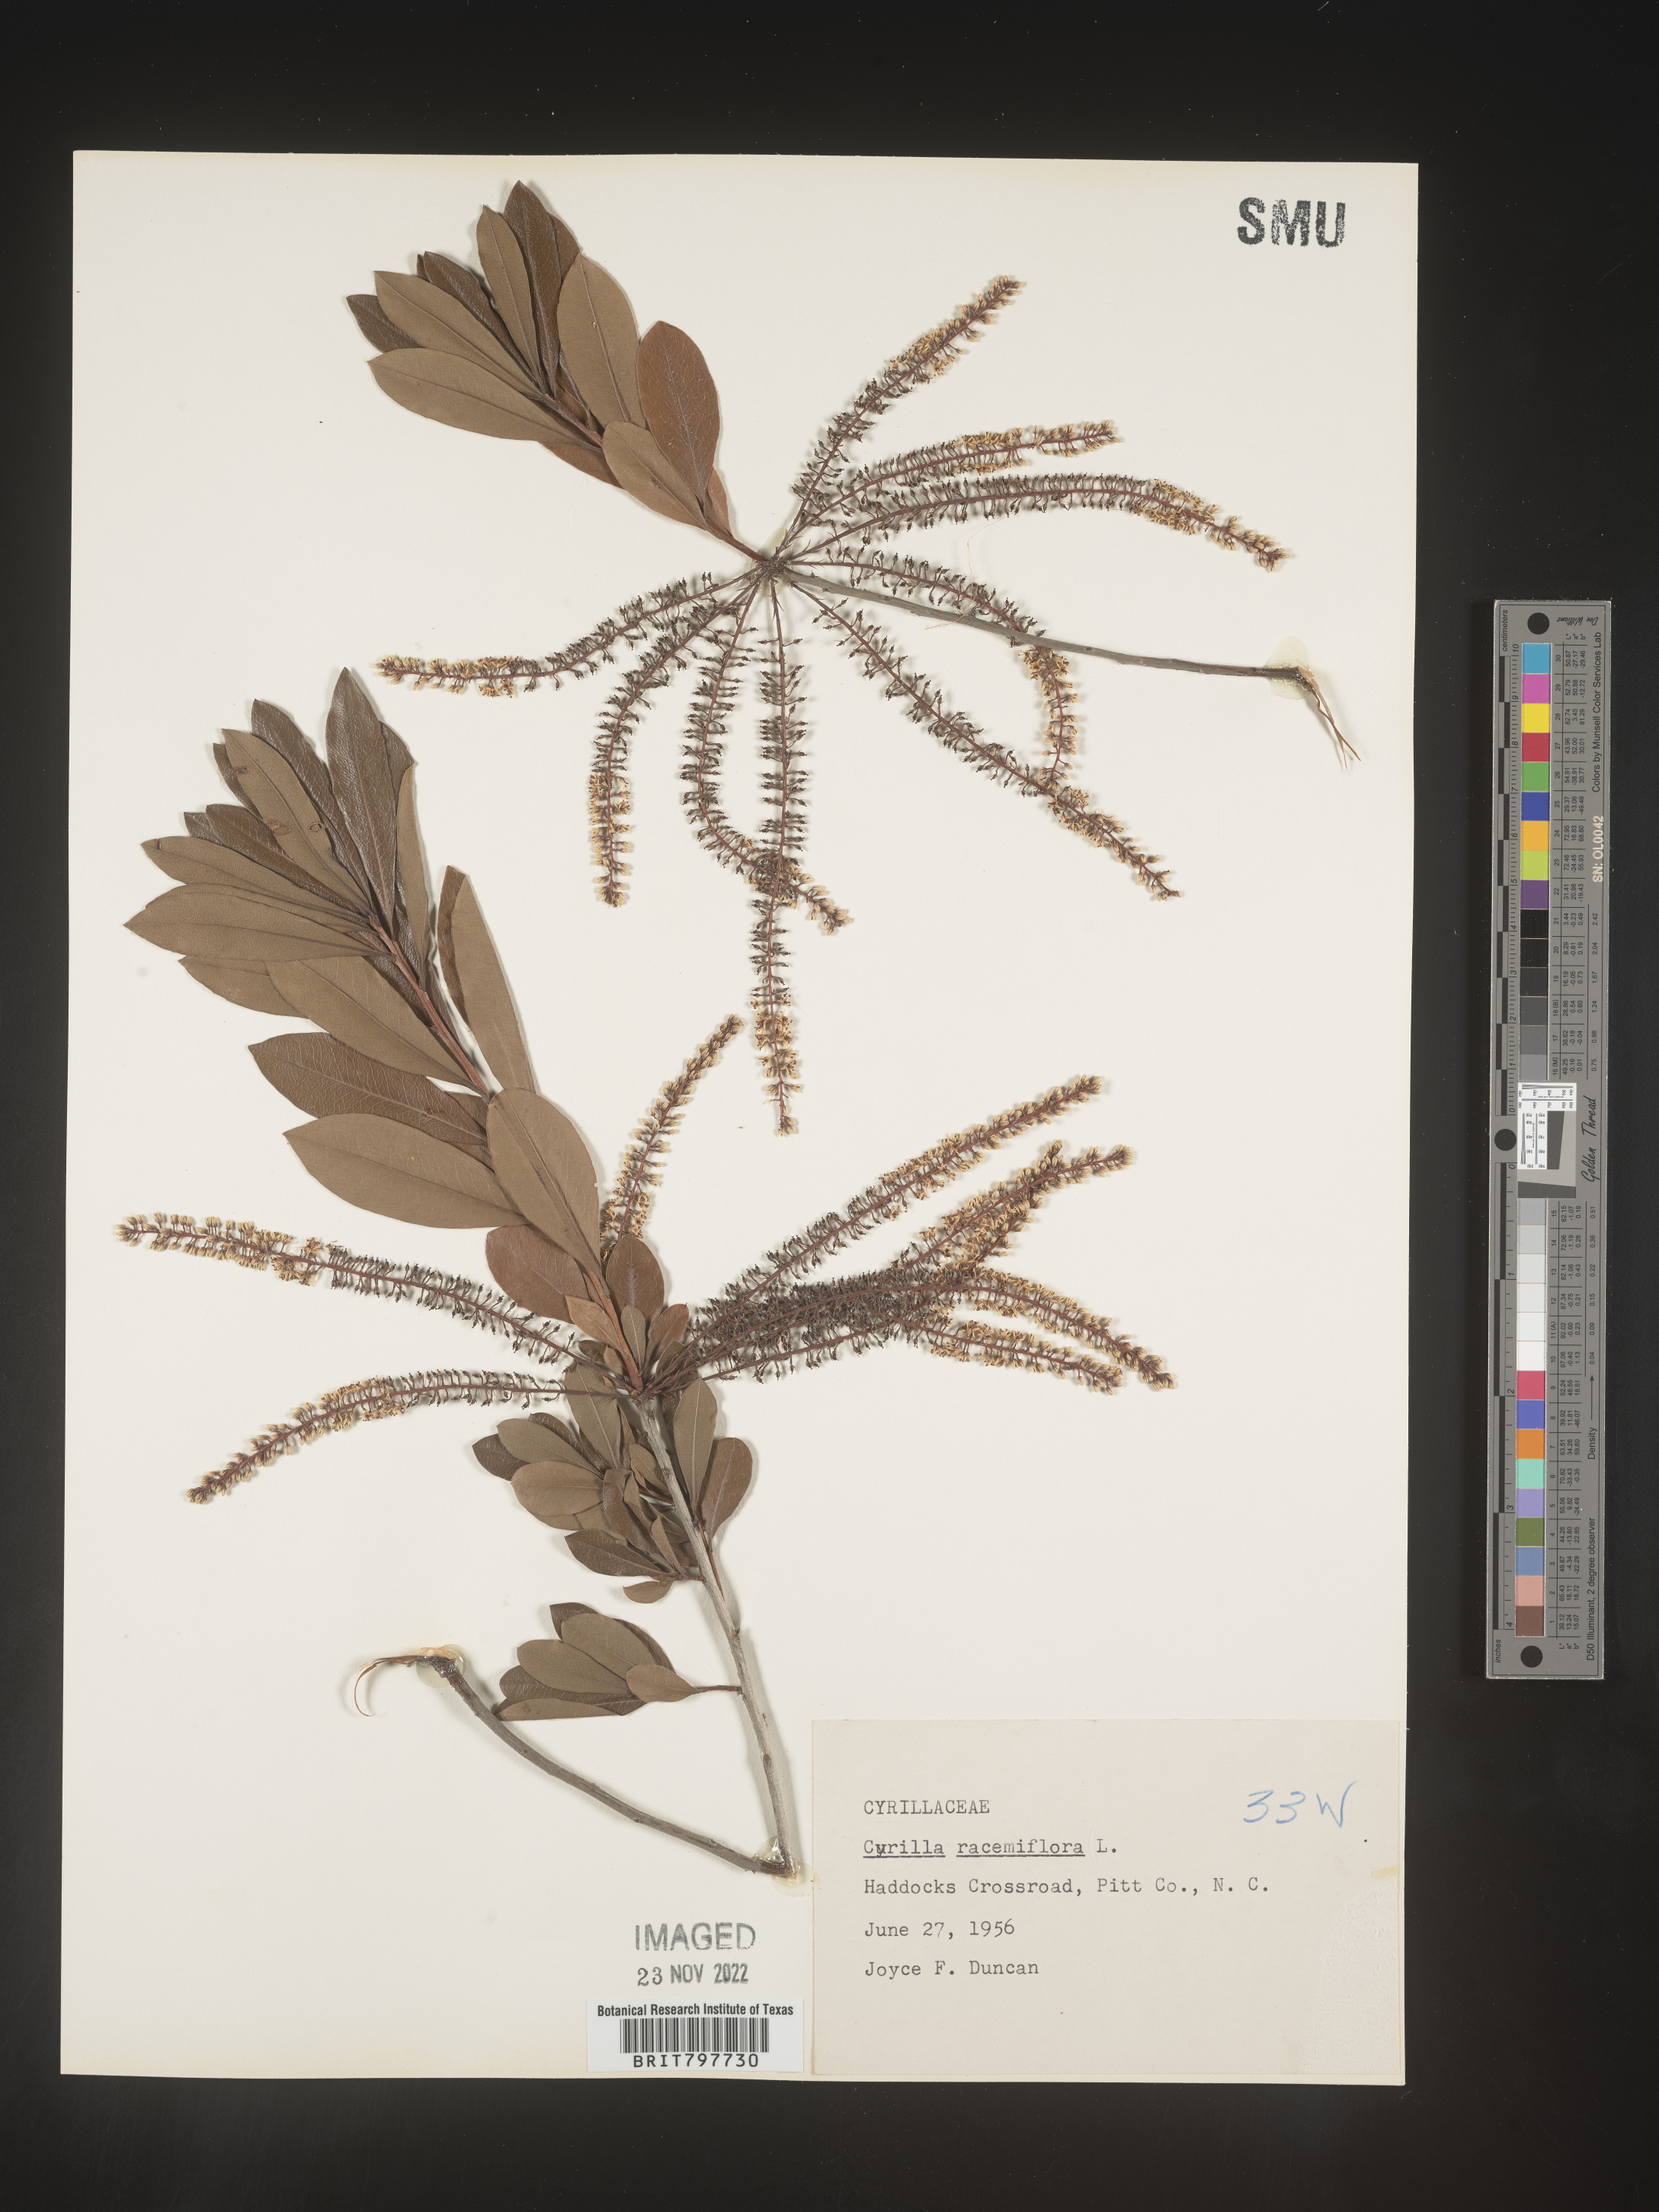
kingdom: Plantae
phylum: Tracheophyta
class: Magnoliopsida
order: Ericales
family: Cyrillaceae
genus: Cyrilla
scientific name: Cyrilla racemiflora
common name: Black titi
